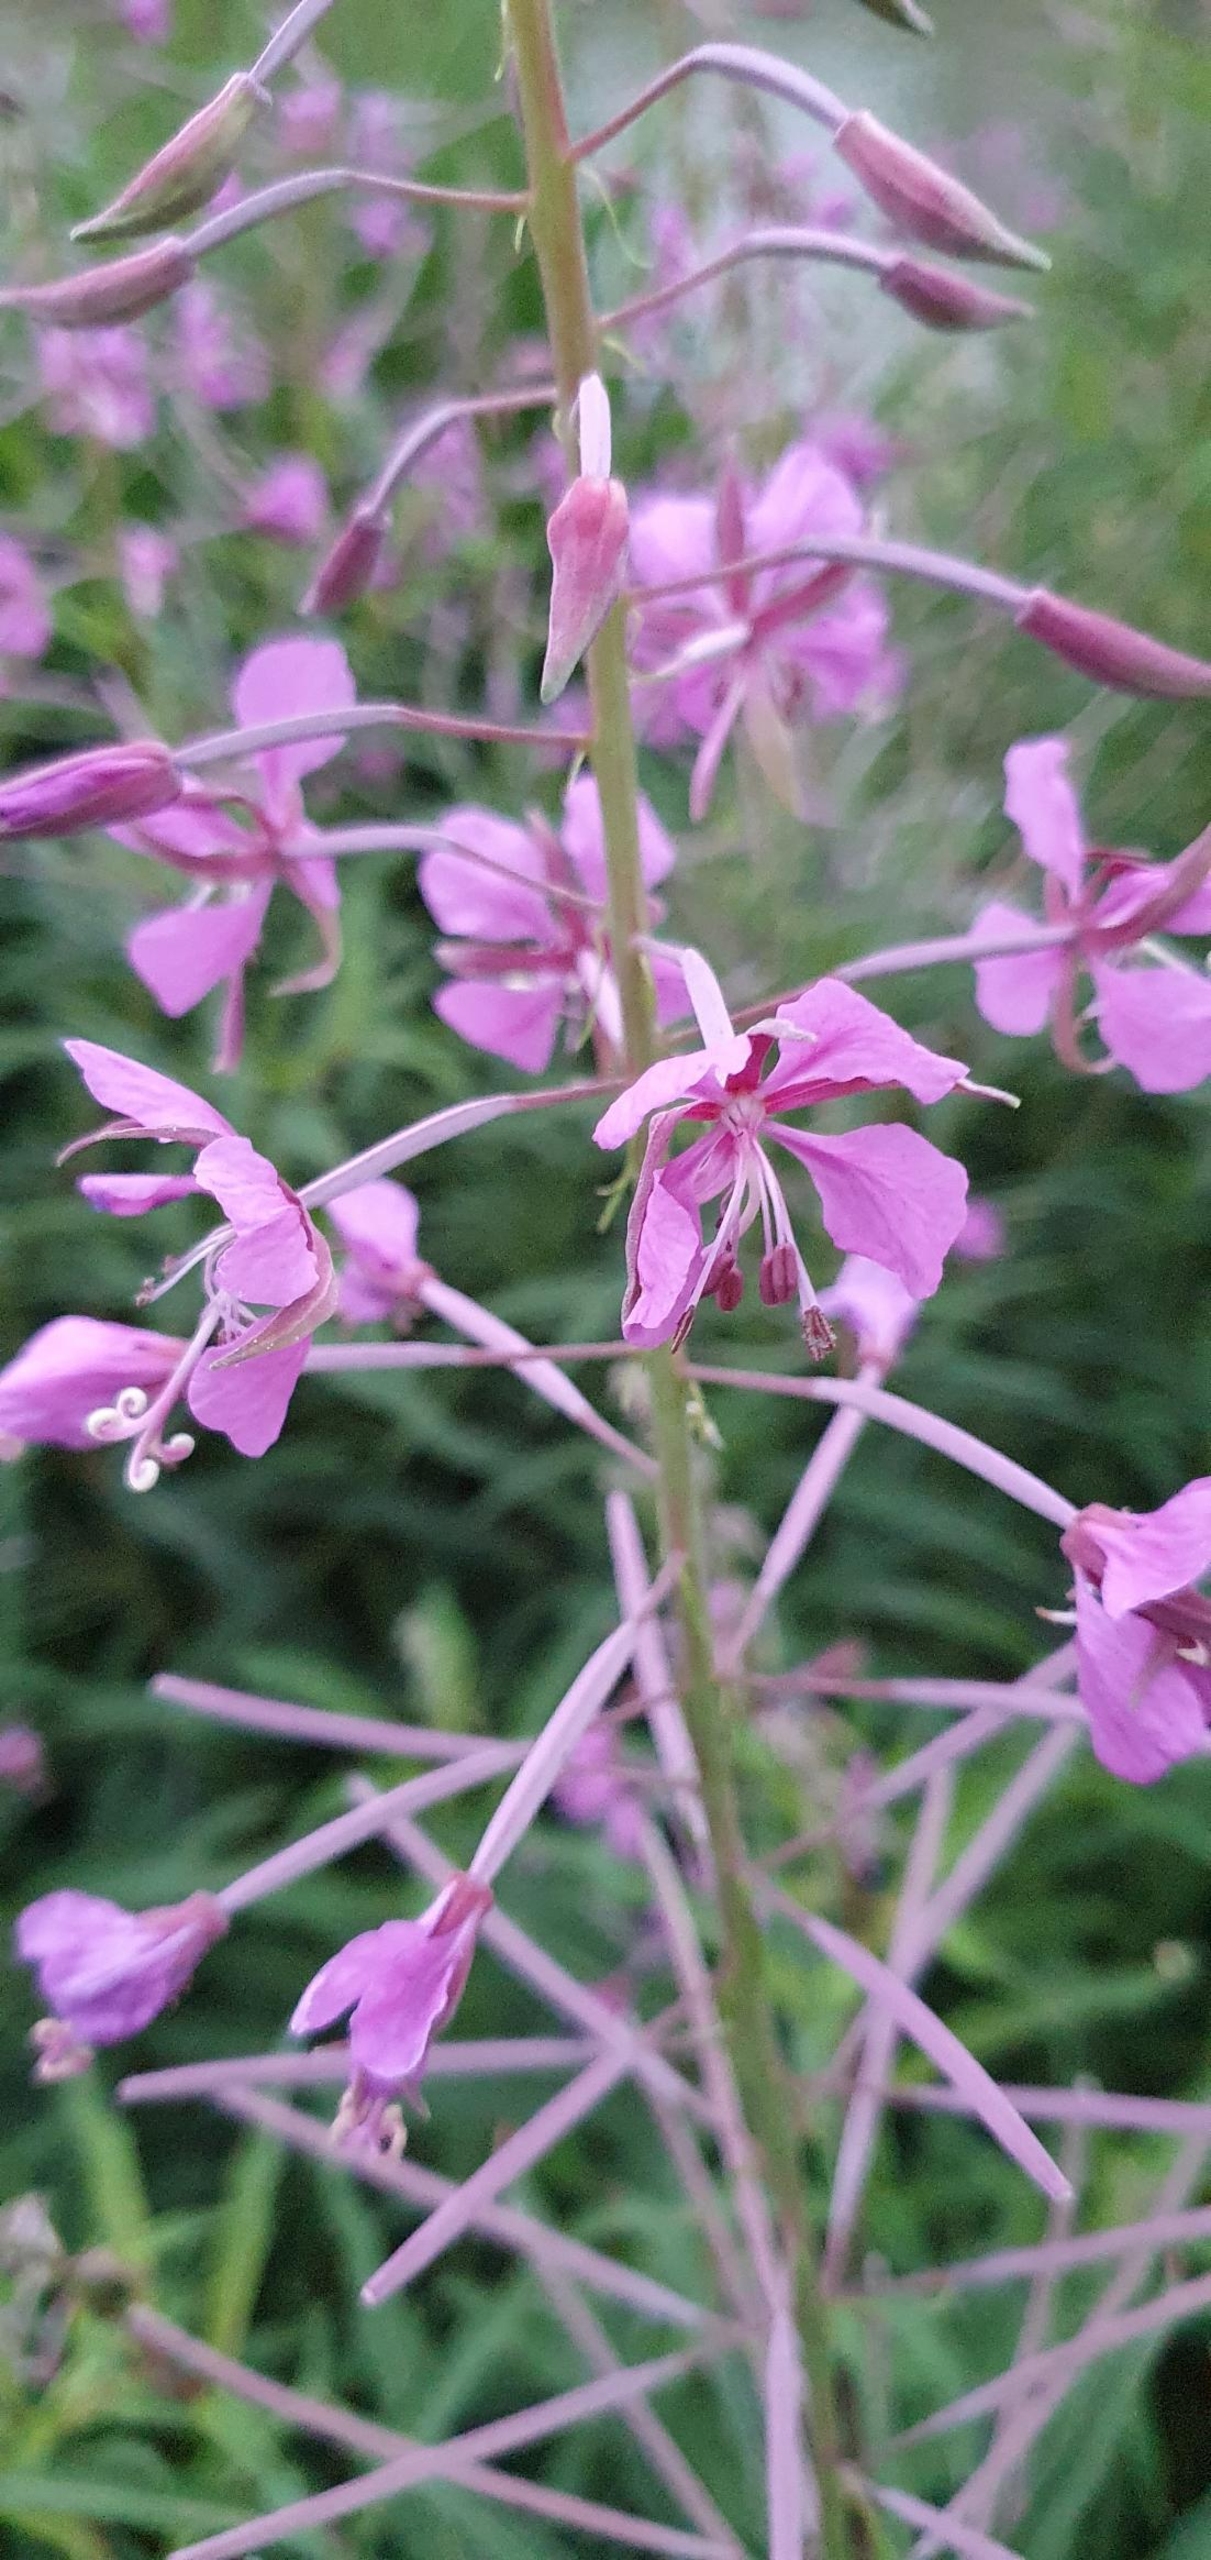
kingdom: Plantae
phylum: Tracheophyta
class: Magnoliopsida
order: Myrtales
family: Onagraceae
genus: Chamaenerion
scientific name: Chamaenerion angustifolium
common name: Gederams
